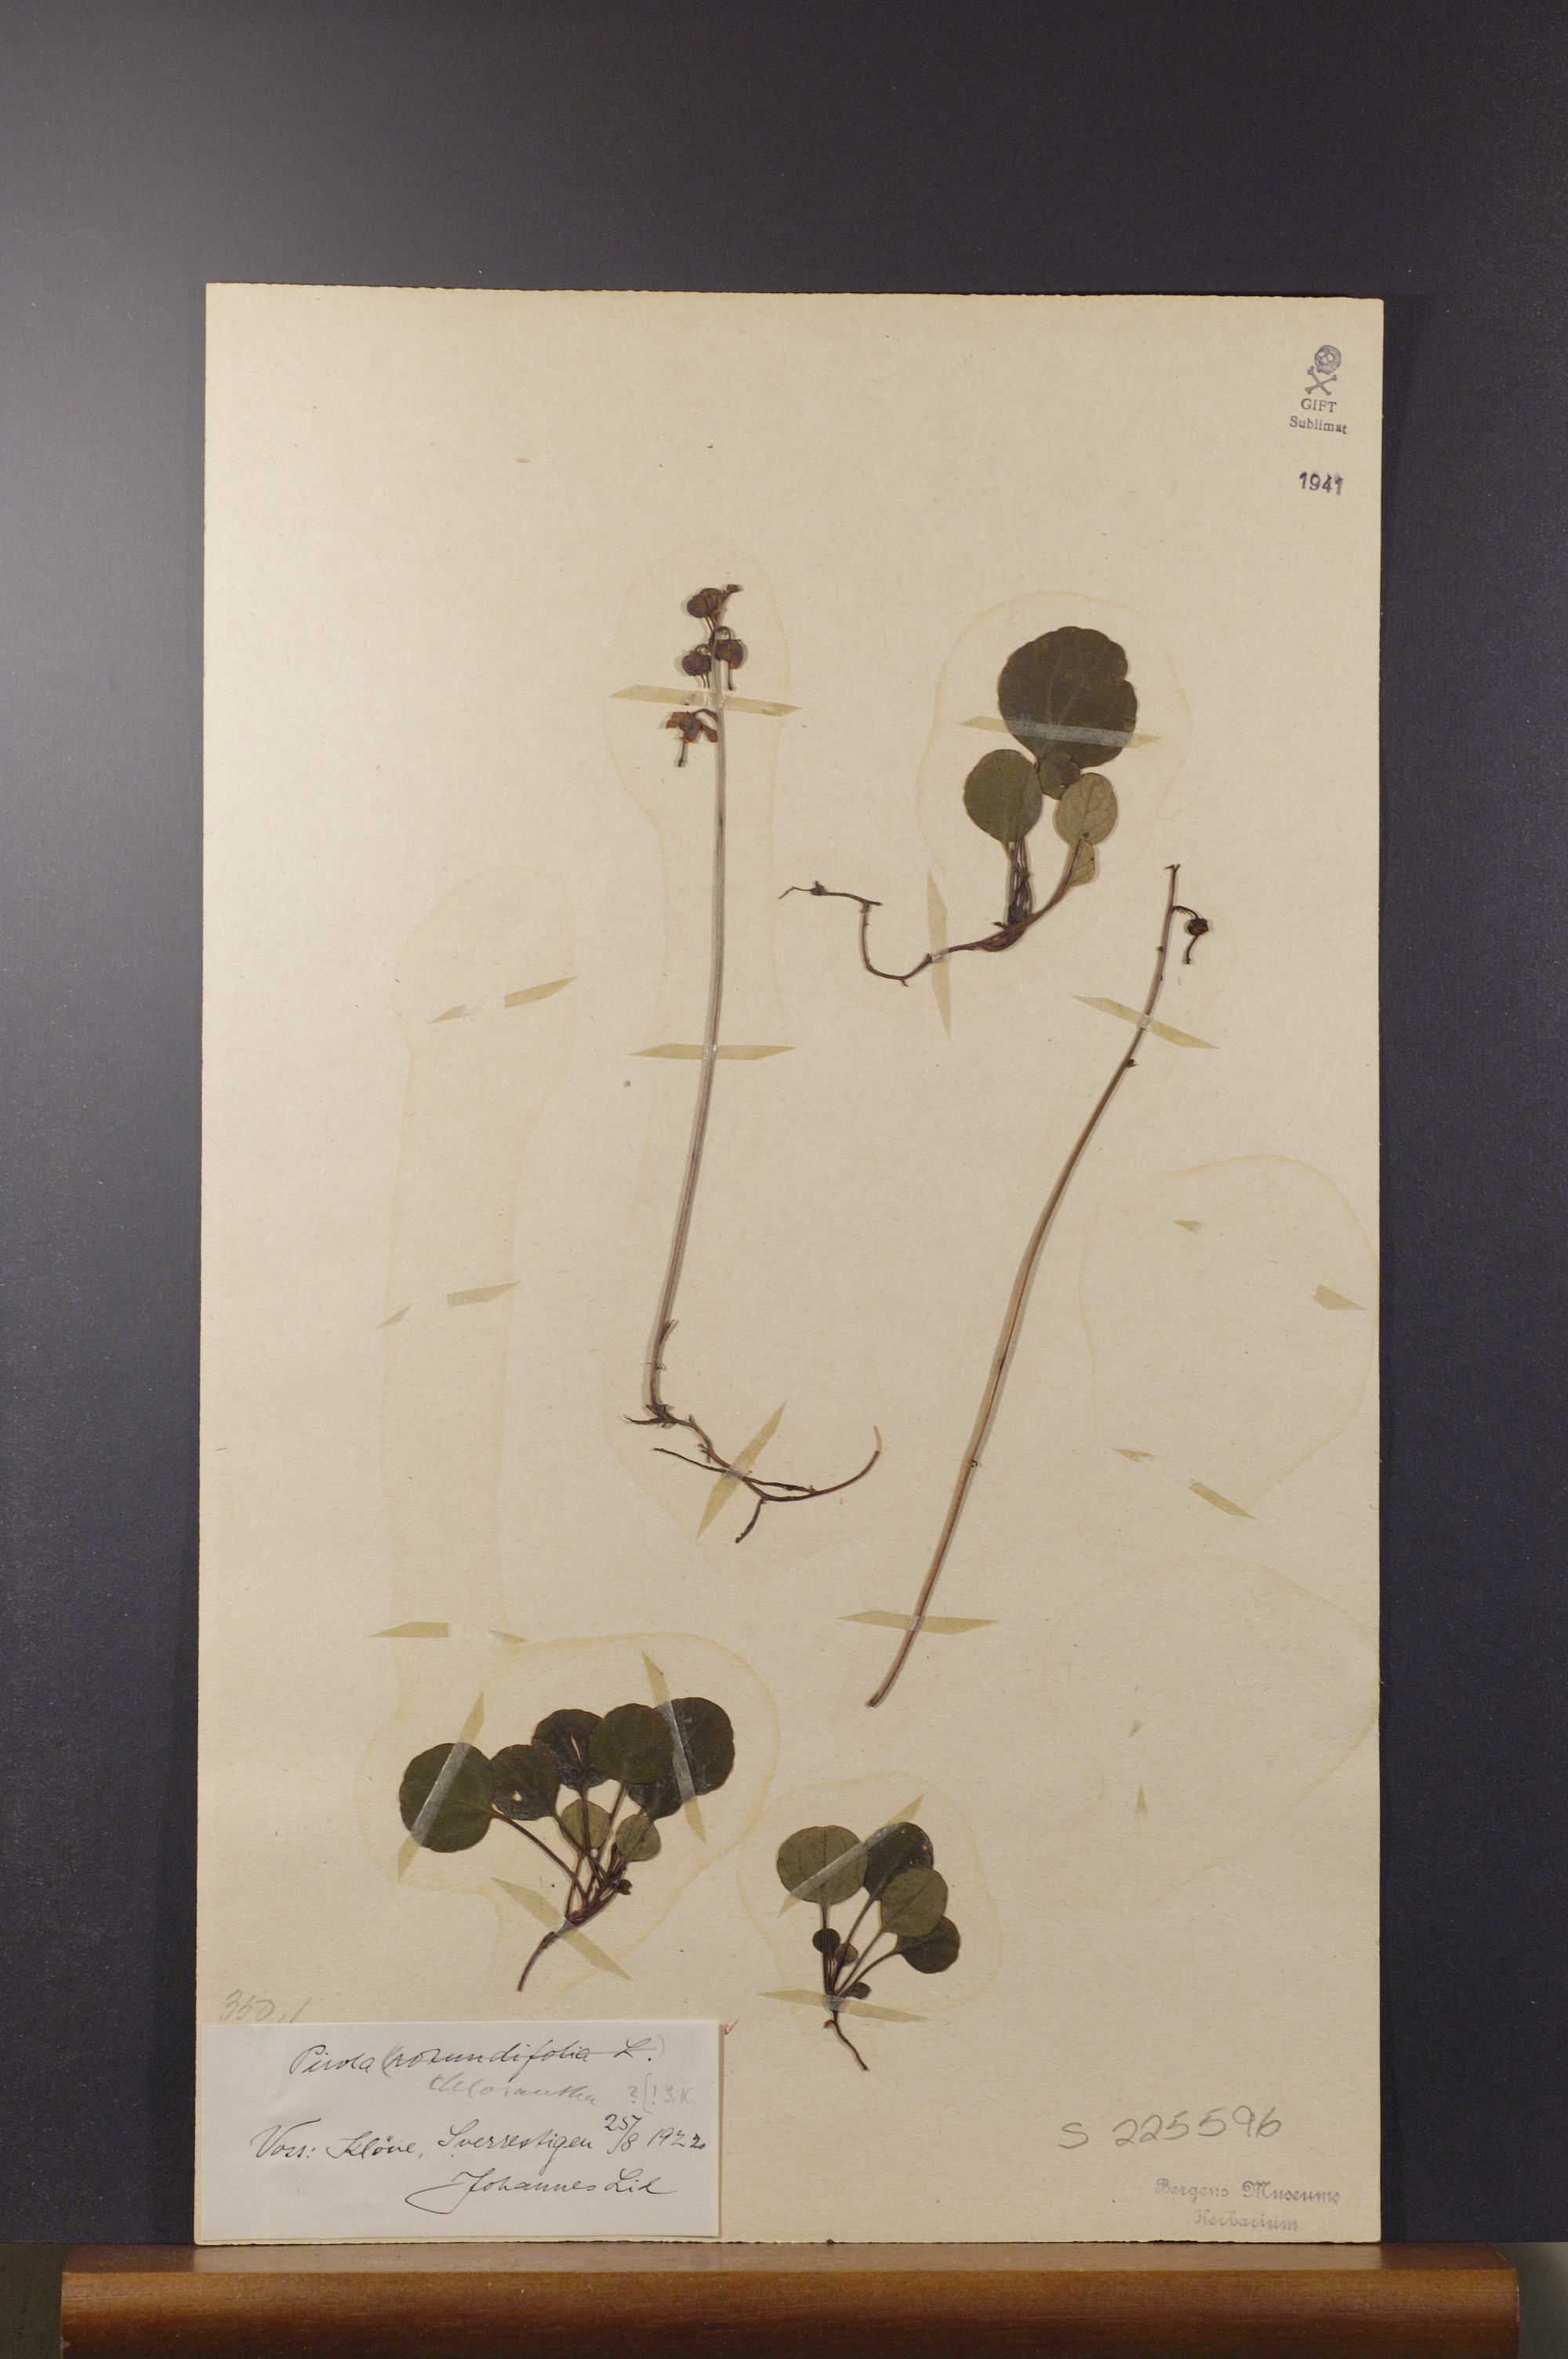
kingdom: Plantae
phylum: Tracheophyta
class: Magnoliopsida
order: Ericales
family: Ericaceae
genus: Pyrola
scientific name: Pyrola chlorantha
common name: Green wintergreen
